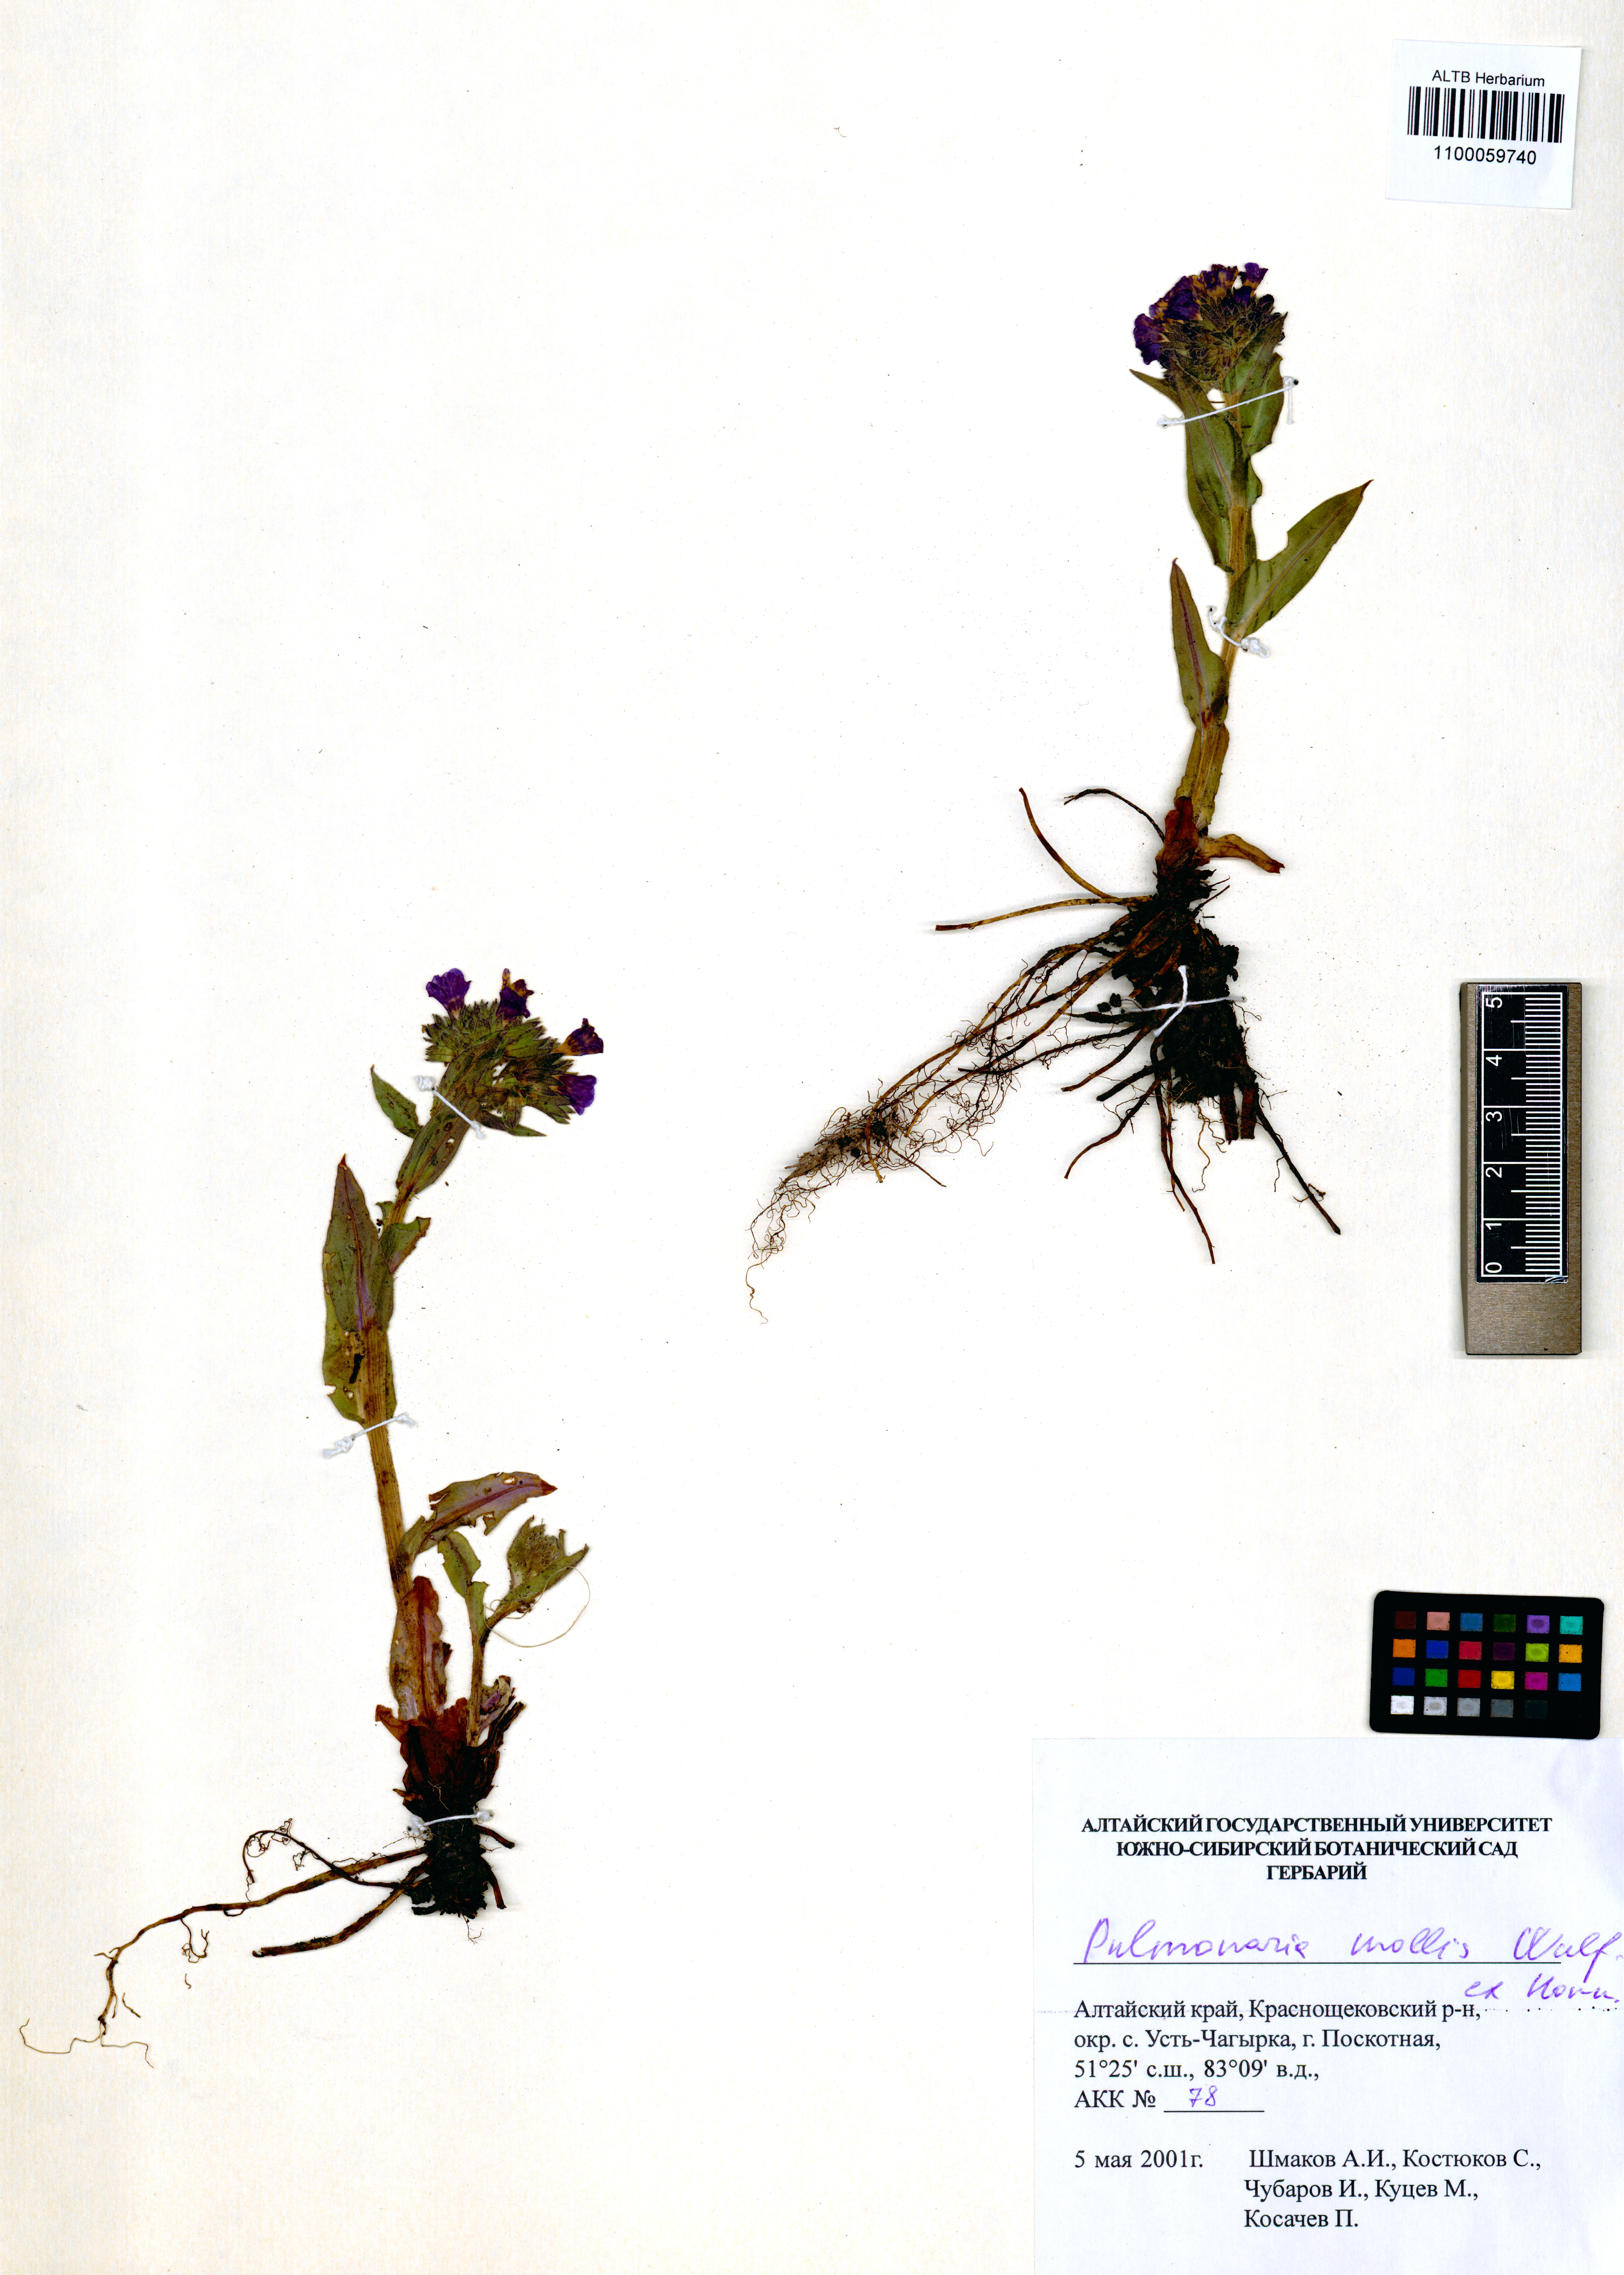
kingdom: Plantae
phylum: Tracheophyta
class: Magnoliopsida
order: Boraginales
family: Boraginaceae
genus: Pulmonaria
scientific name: Pulmonaria mollis
